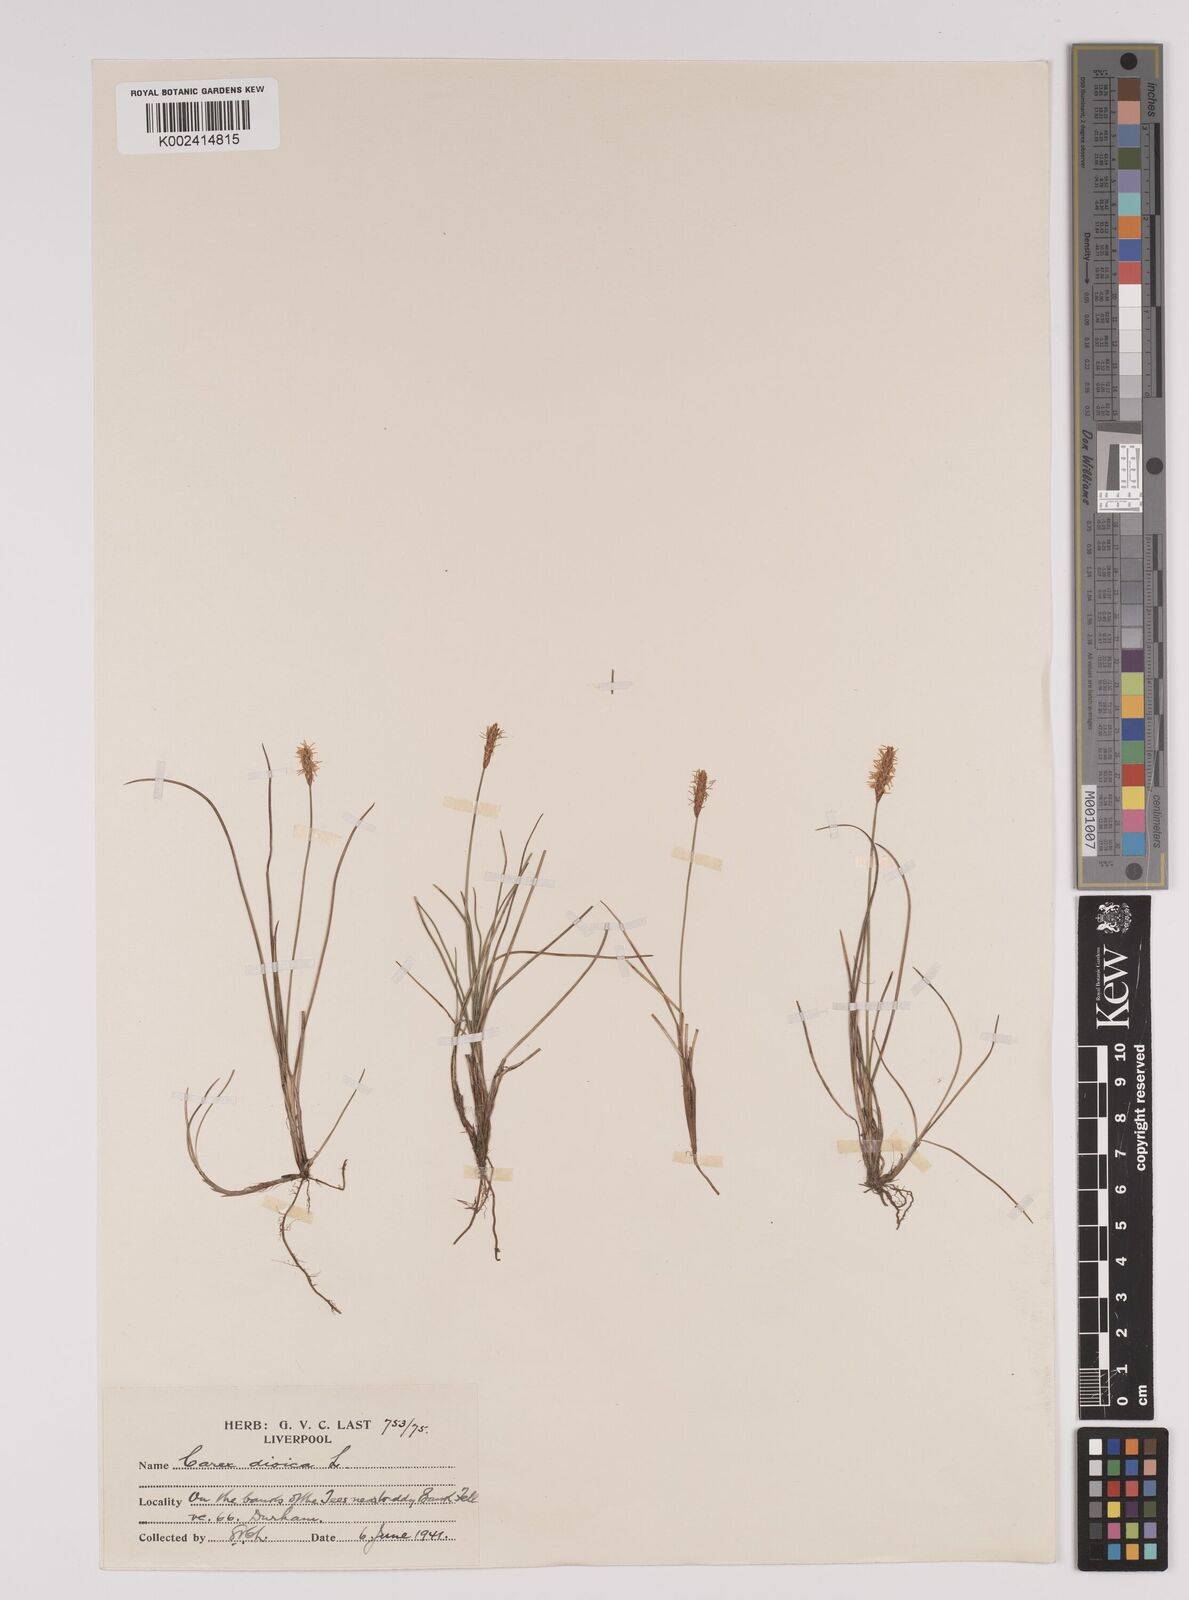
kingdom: Plantae
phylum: Tracheophyta
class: Liliopsida
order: Poales
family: Cyperaceae
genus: Carex
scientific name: Carex dioica
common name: Dioecious sedge
